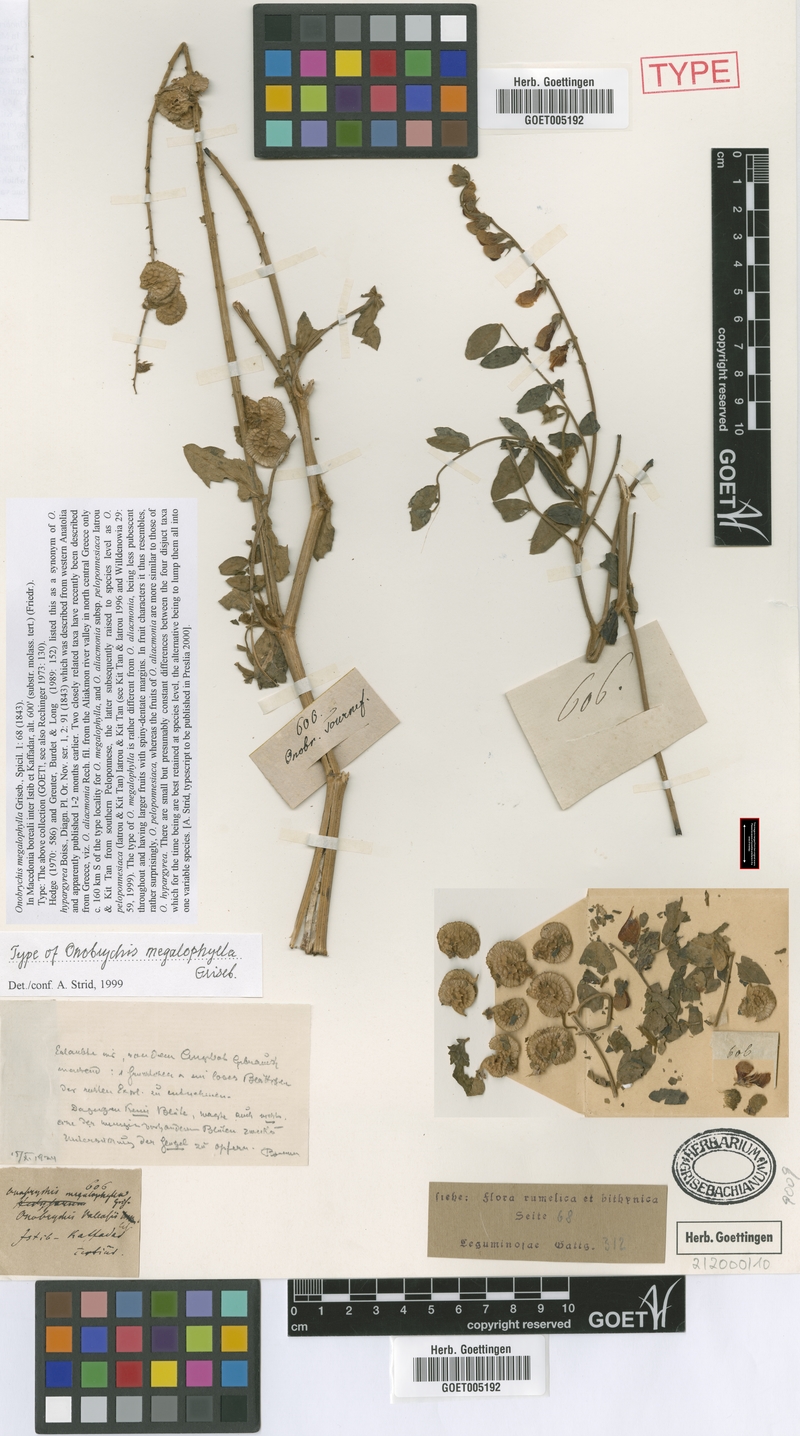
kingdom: Plantae
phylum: Tracheophyta
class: Magnoliopsida
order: Fabales
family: Fabaceae
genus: Onobrychis
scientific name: Onobrychis hypargyrea
